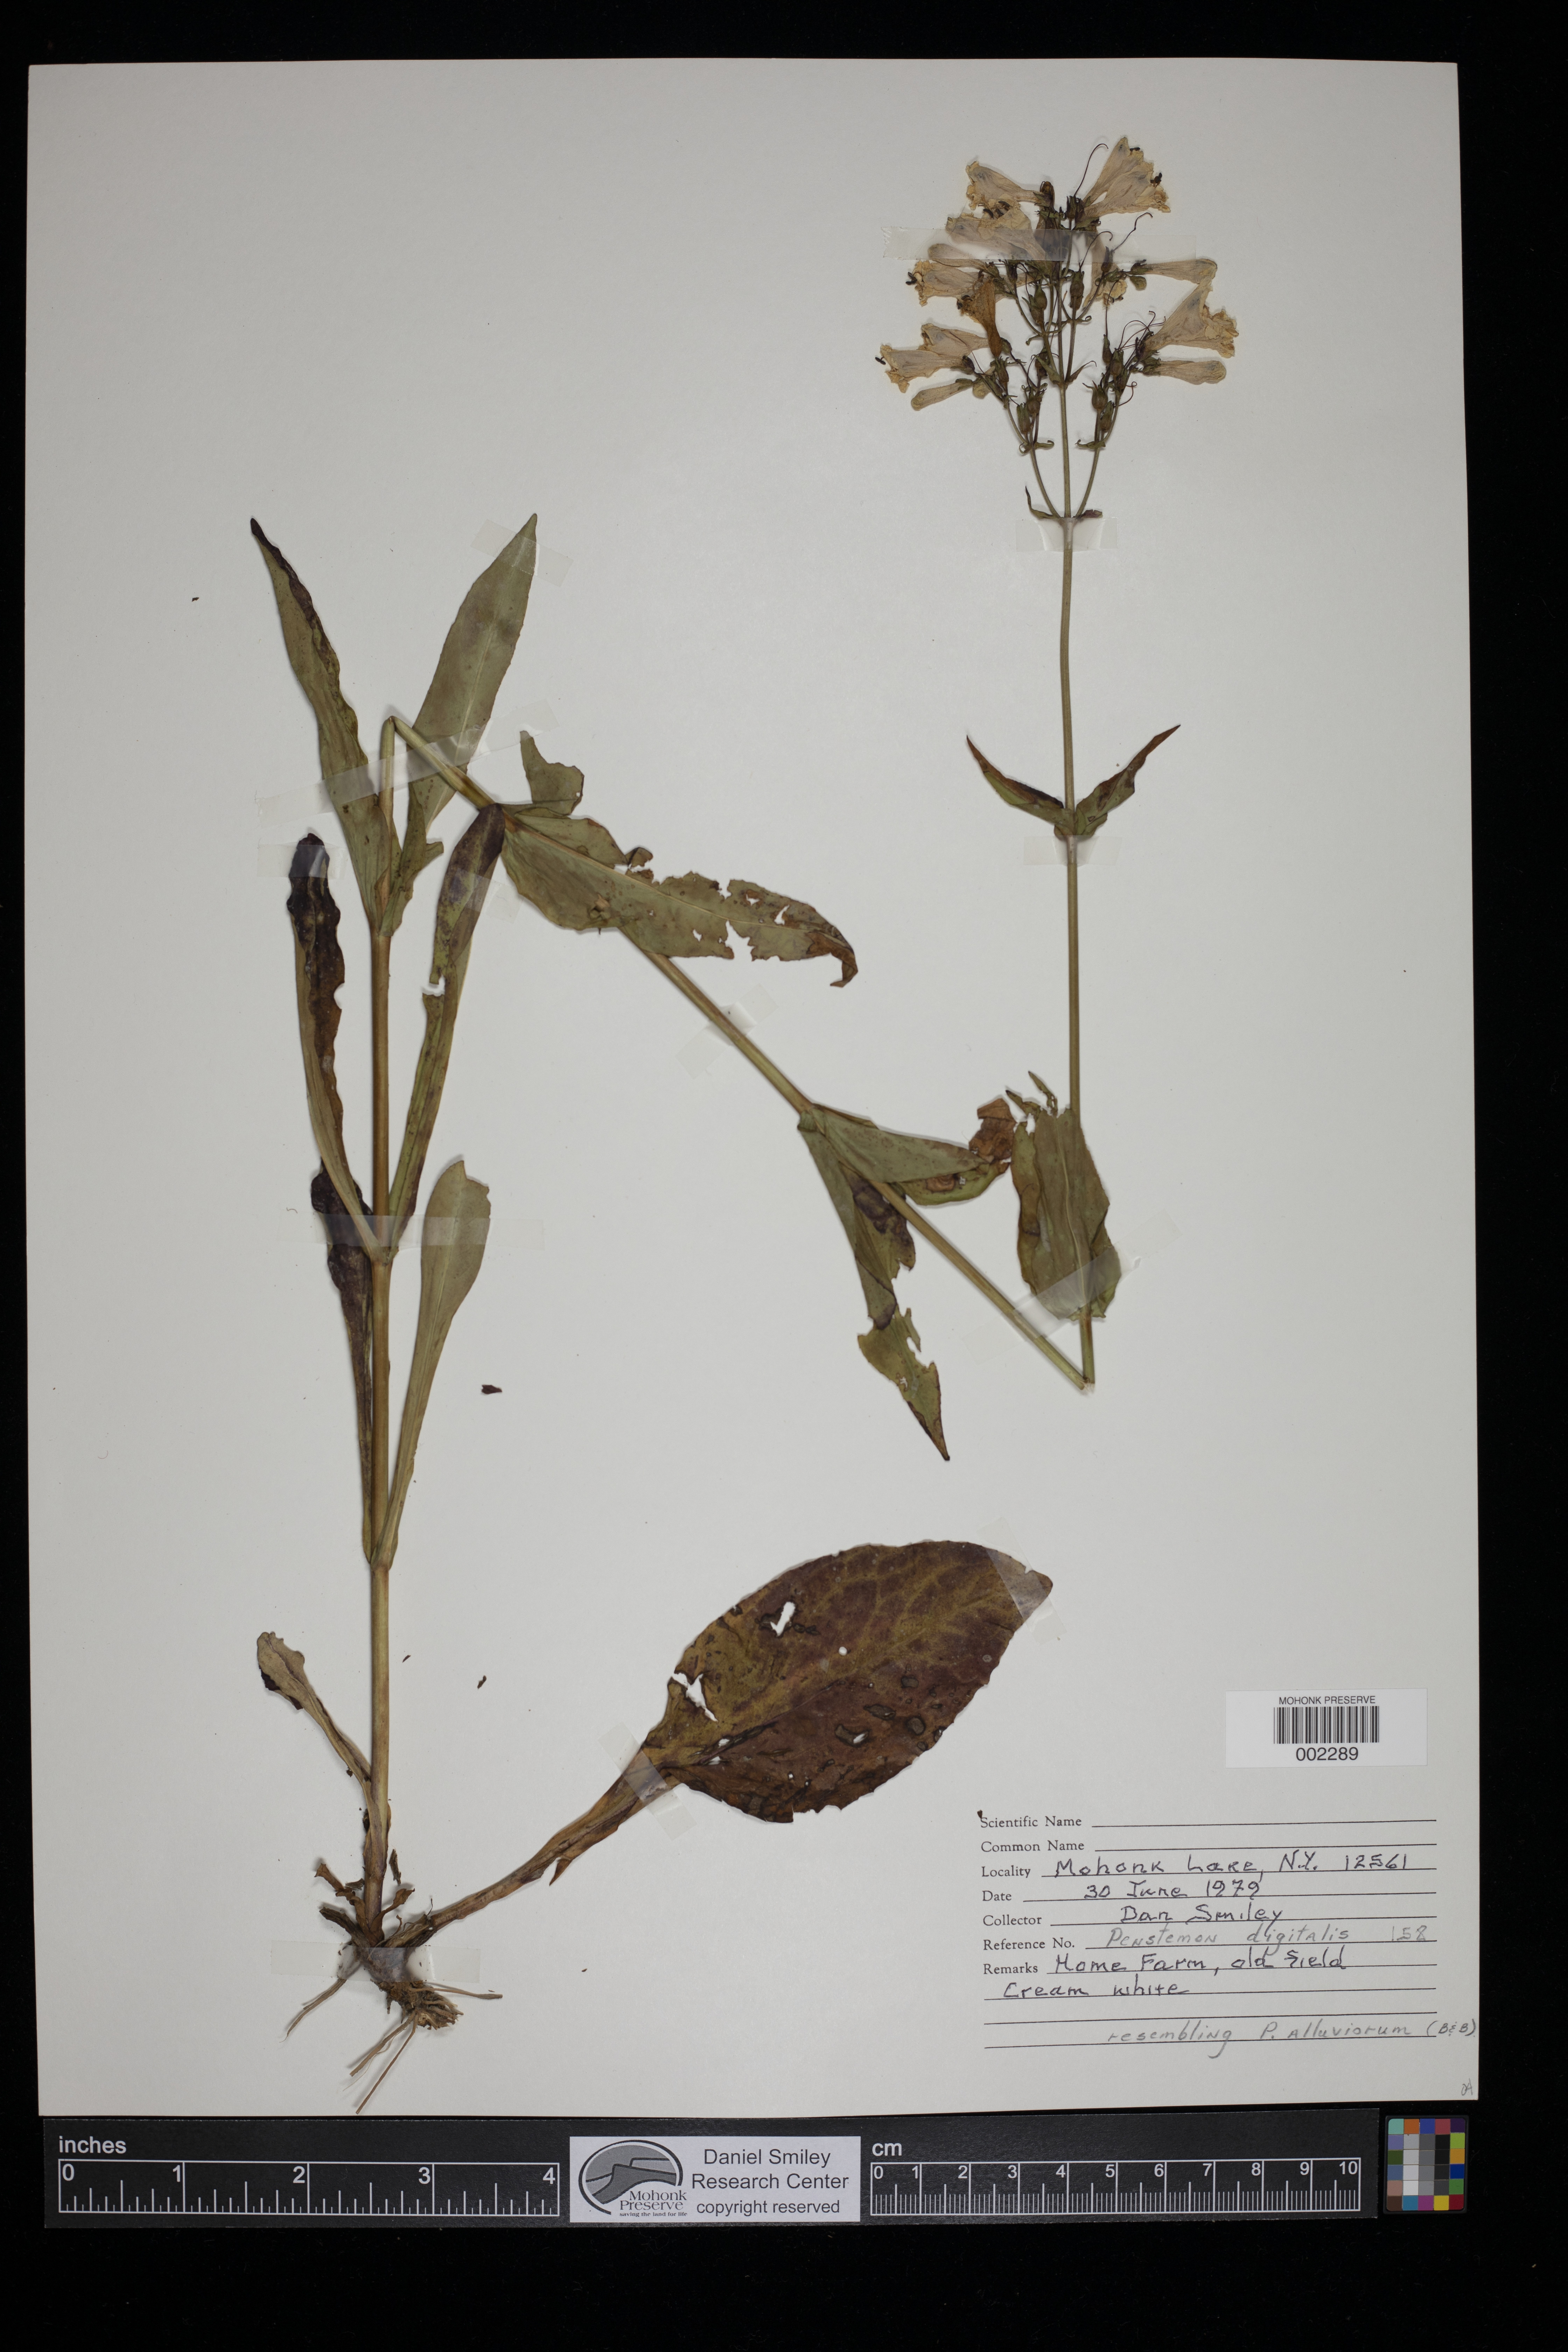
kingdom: Plantae
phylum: Tracheophyta
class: Magnoliopsida
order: Lamiales
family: Plantaginaceae
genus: Penstemon
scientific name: Penstemon digitalis
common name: Foxglove beardtongue
